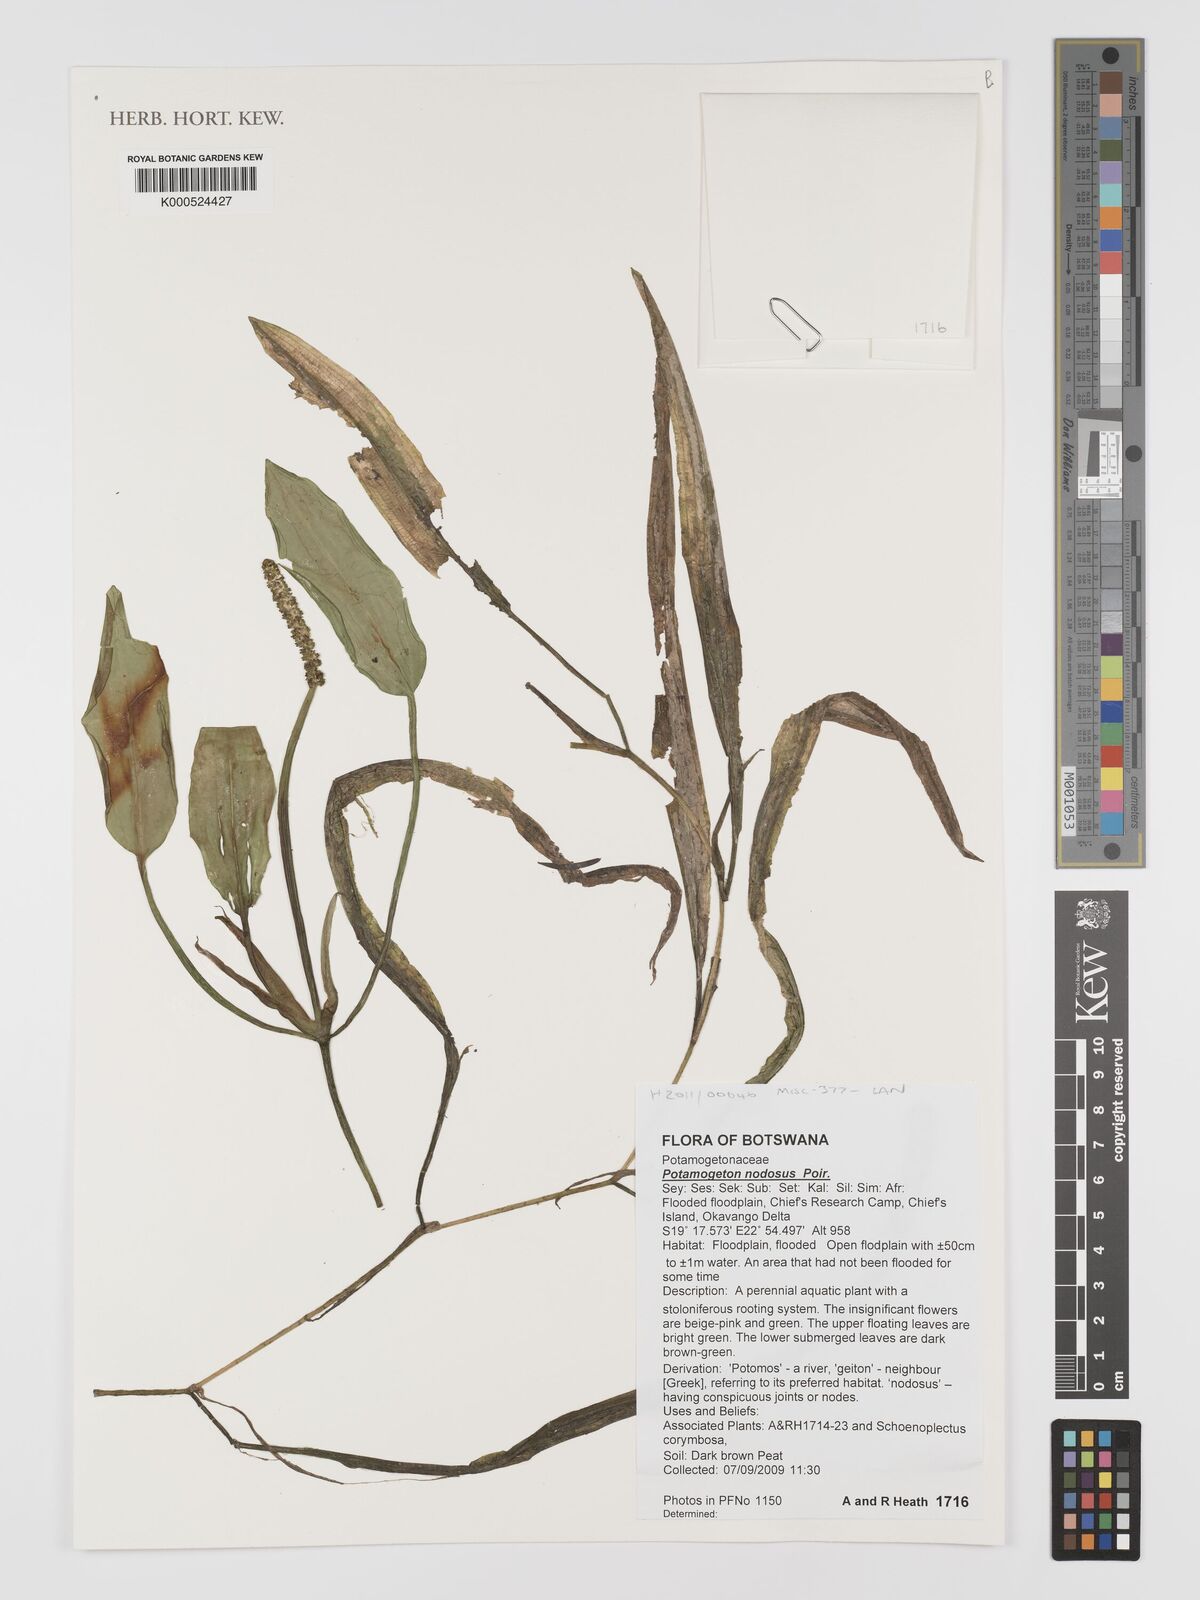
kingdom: Plantae
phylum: Tracheophyta
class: Liliopsida
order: Alismatales
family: Potamogetonaceae
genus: Potamogeton
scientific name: Potamogeton nodosus
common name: Loddon pondweed
